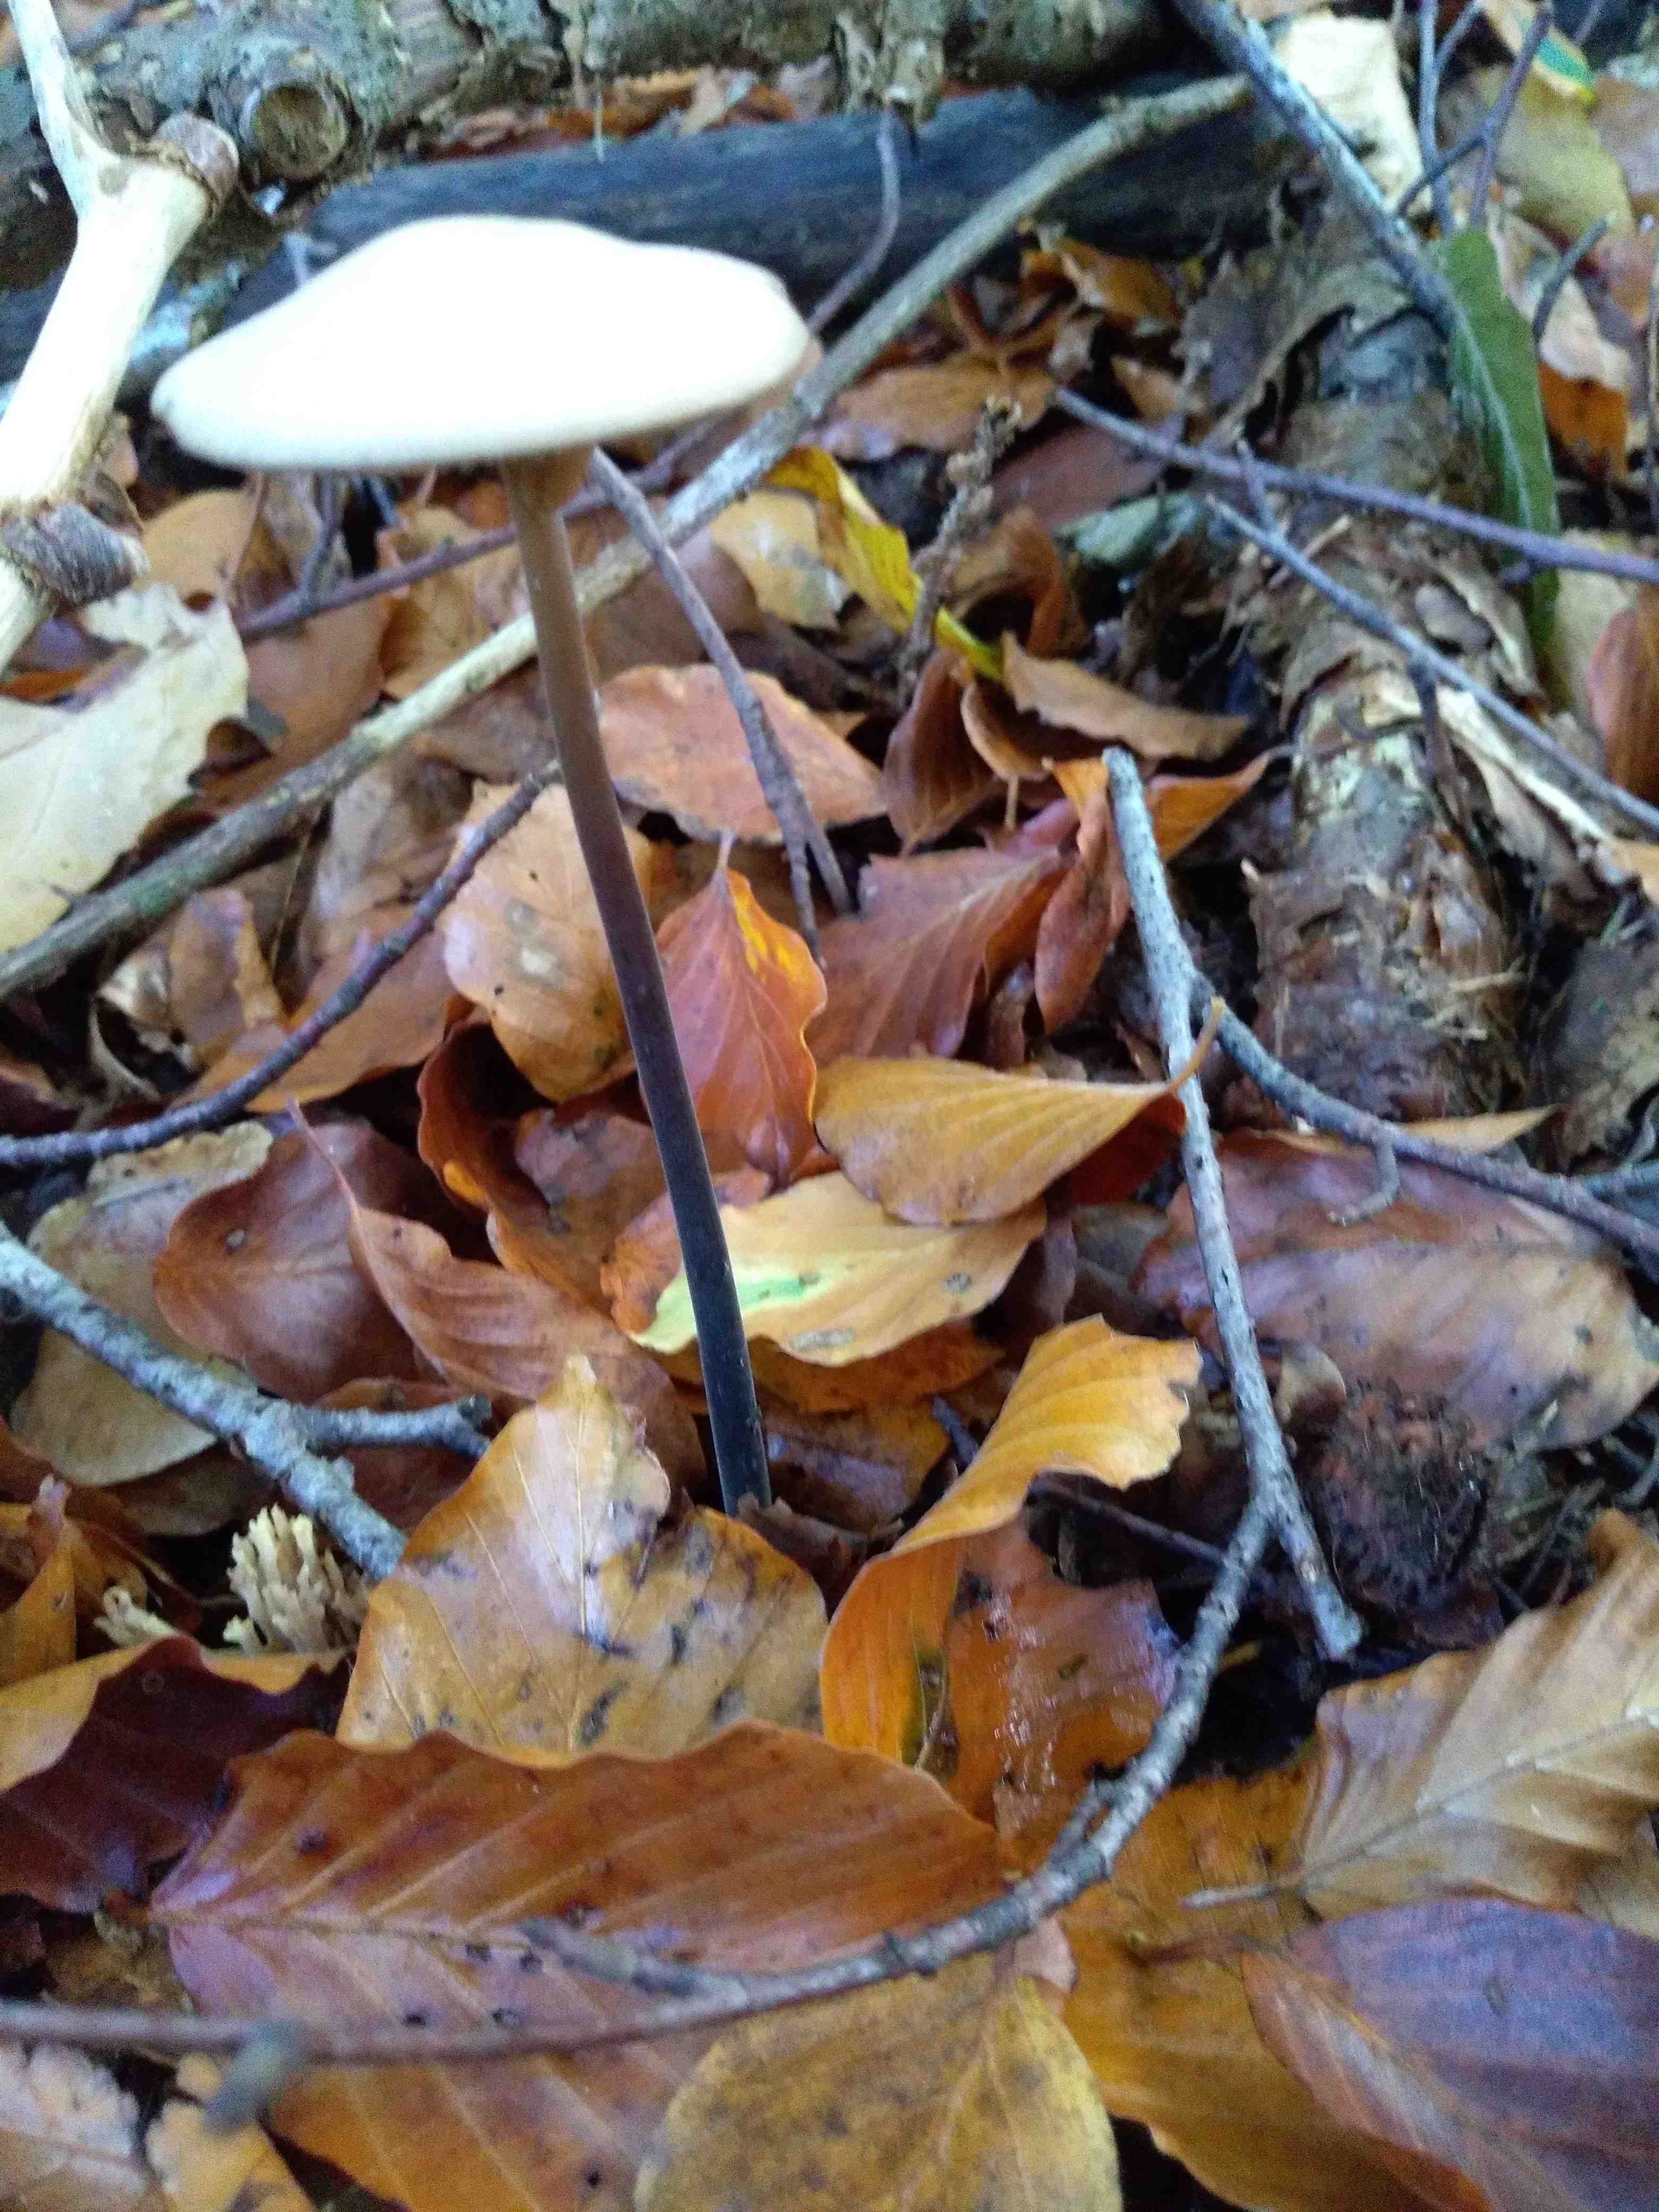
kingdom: Fungi
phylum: Basidiomycota
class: Agaricomycetes
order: Agaricales
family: Omphalotaceae
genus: Mycetinis
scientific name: Mycetinis alliaceus
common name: stor løghat
